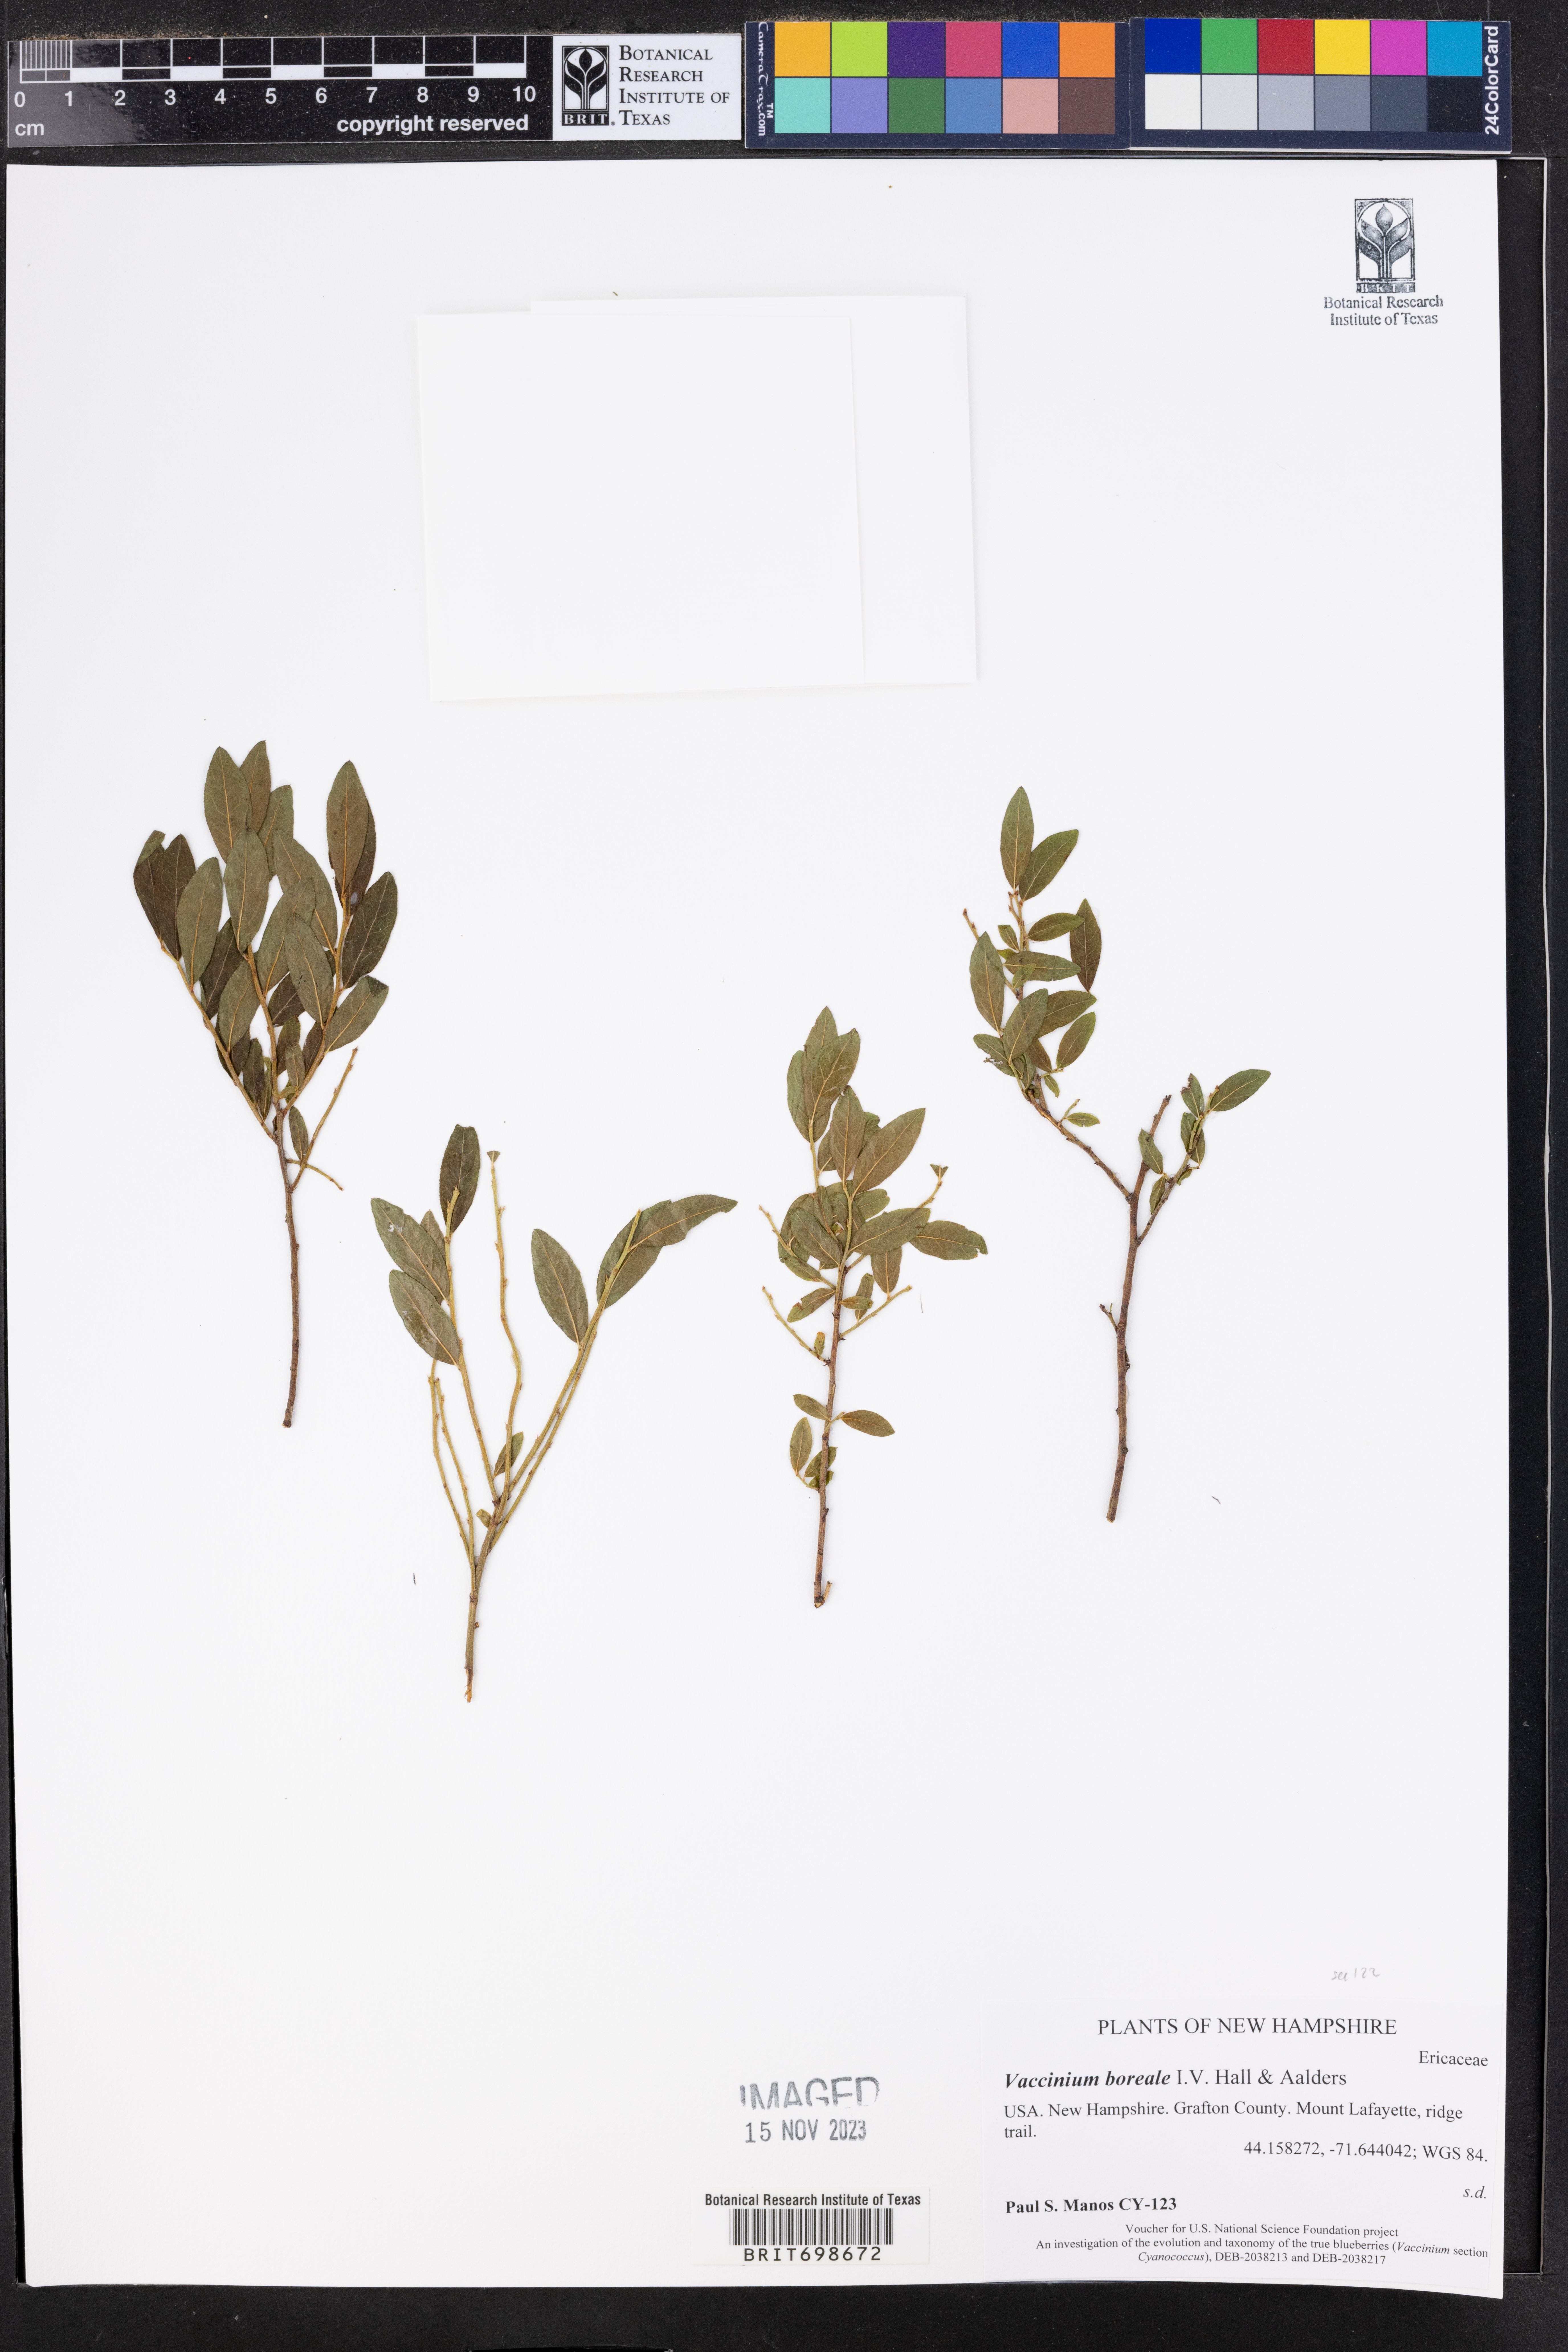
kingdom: Plantae
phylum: Tracheophyta
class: Magnoliopsida
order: Ericales
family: Ericaceae
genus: Vaccinium
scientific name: Vaccinium boreale
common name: Northern blueberry
